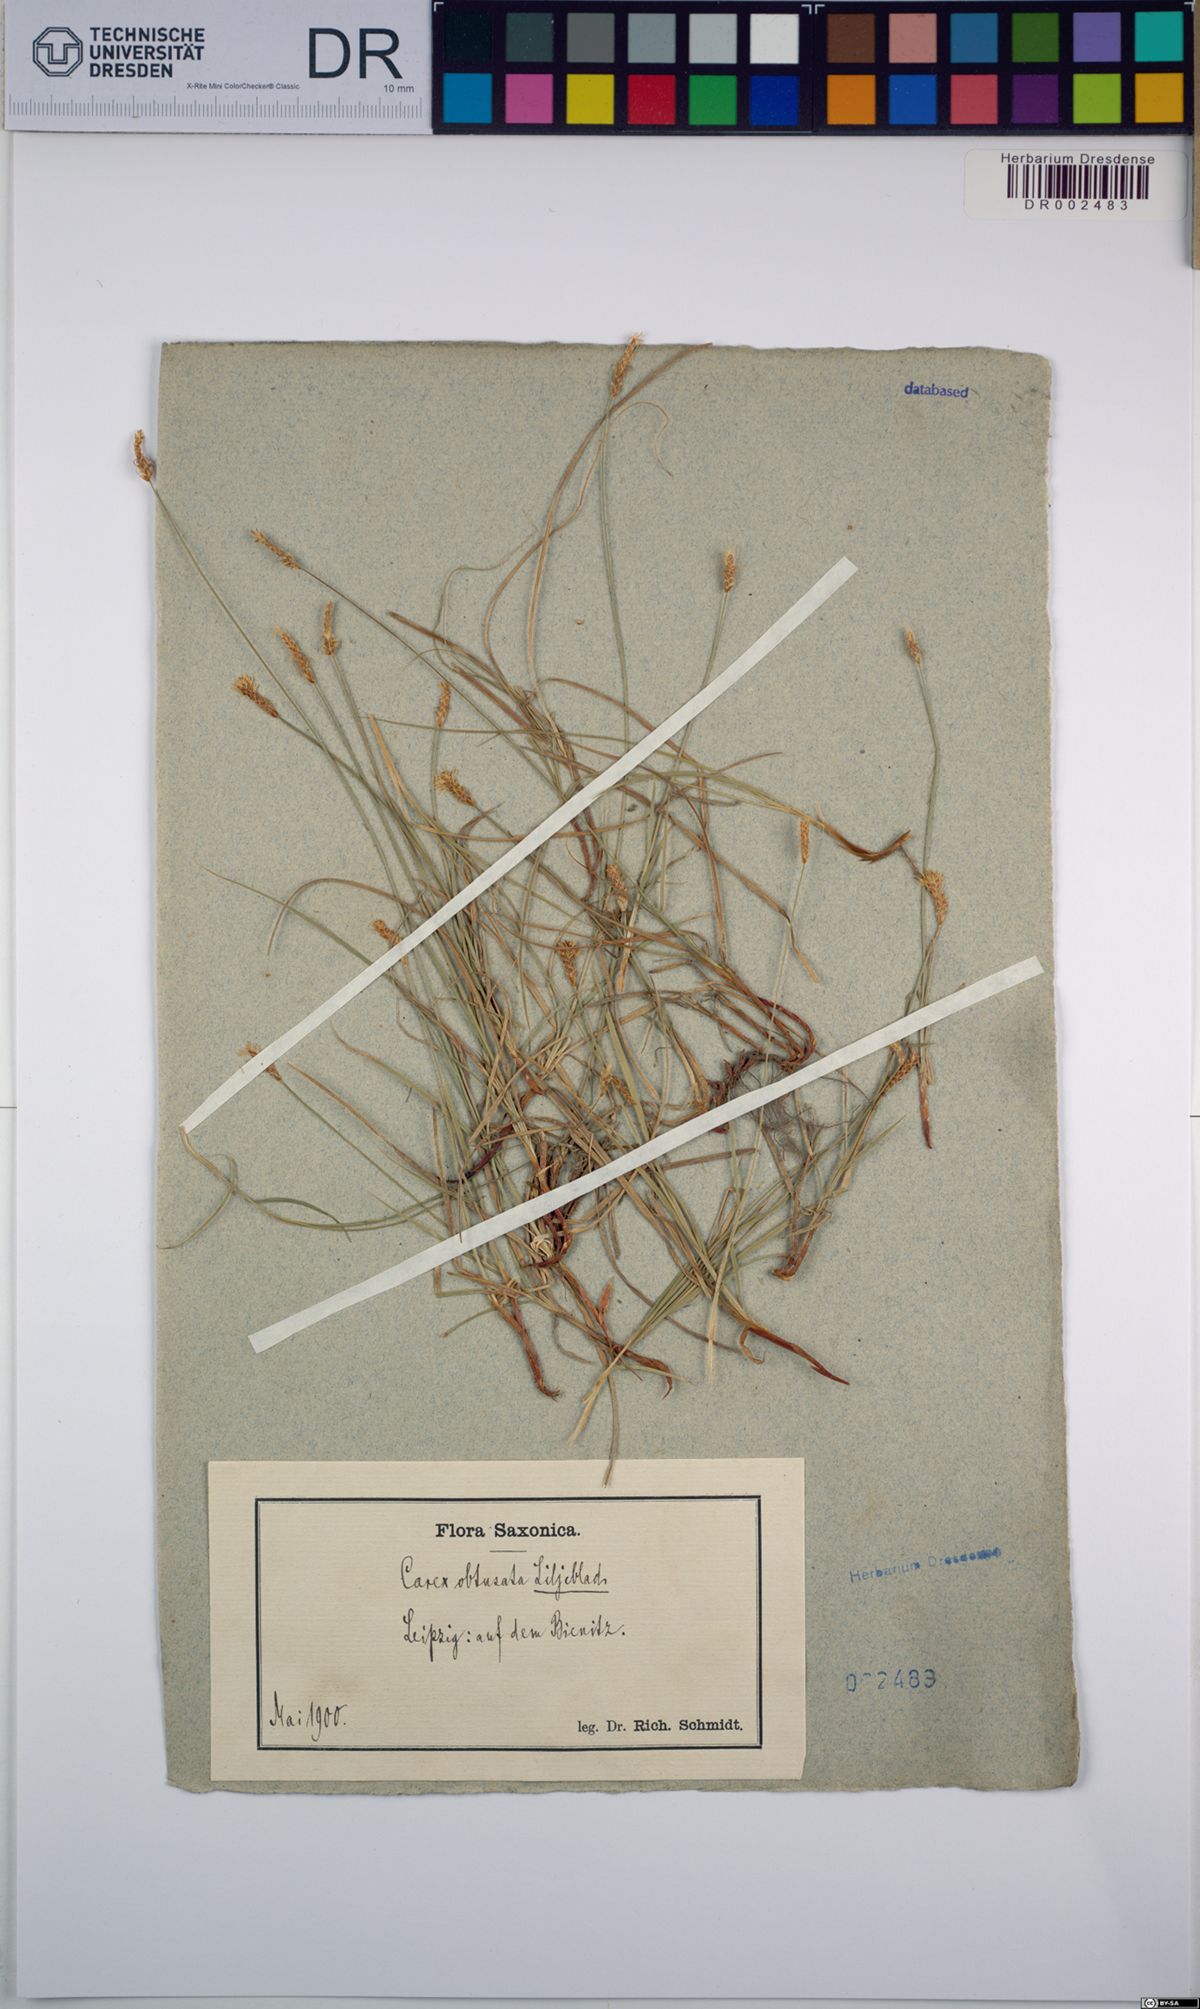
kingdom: Plantae
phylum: Tracheophyta
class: Liliopsida
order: Poales
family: Cyperaceae
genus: Carex
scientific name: Carex obtusata
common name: Blunt sedge
